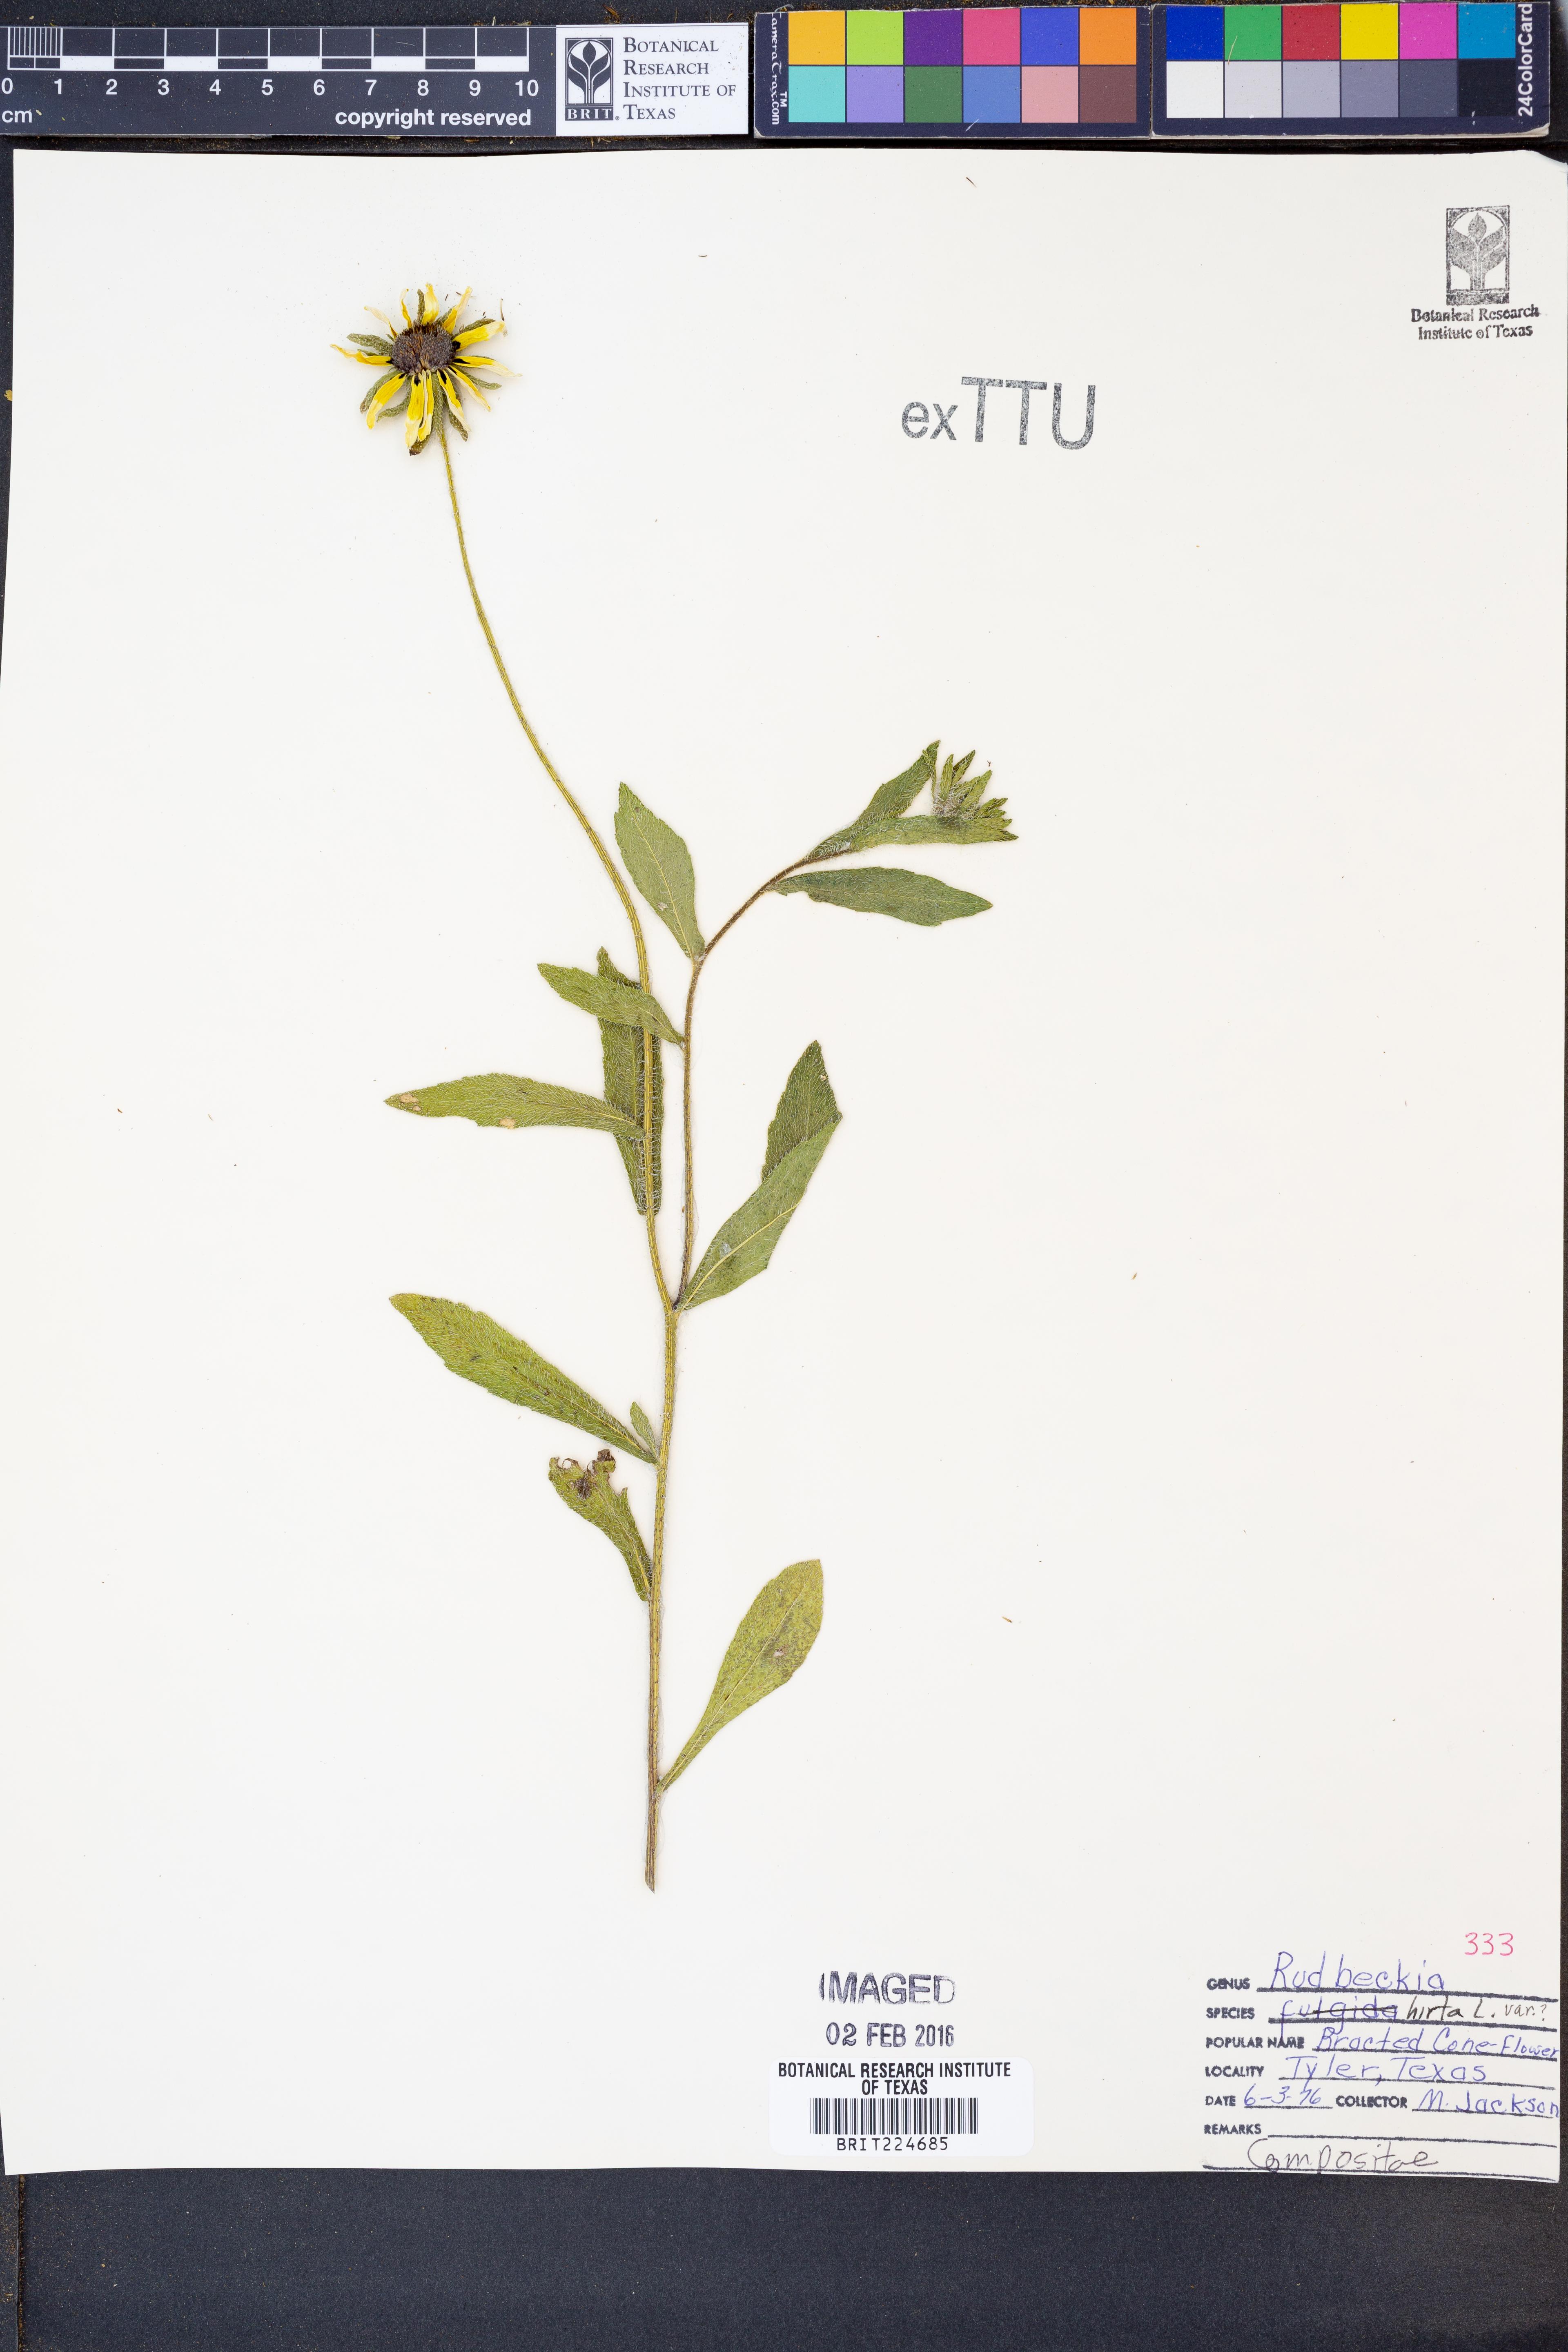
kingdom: Plantae
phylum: Tracheophyta
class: Magnoliopsida
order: Asterales
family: Asteraceae
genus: Rudbeckia
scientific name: Rudbeckia hirta
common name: Black-eyed-susan
